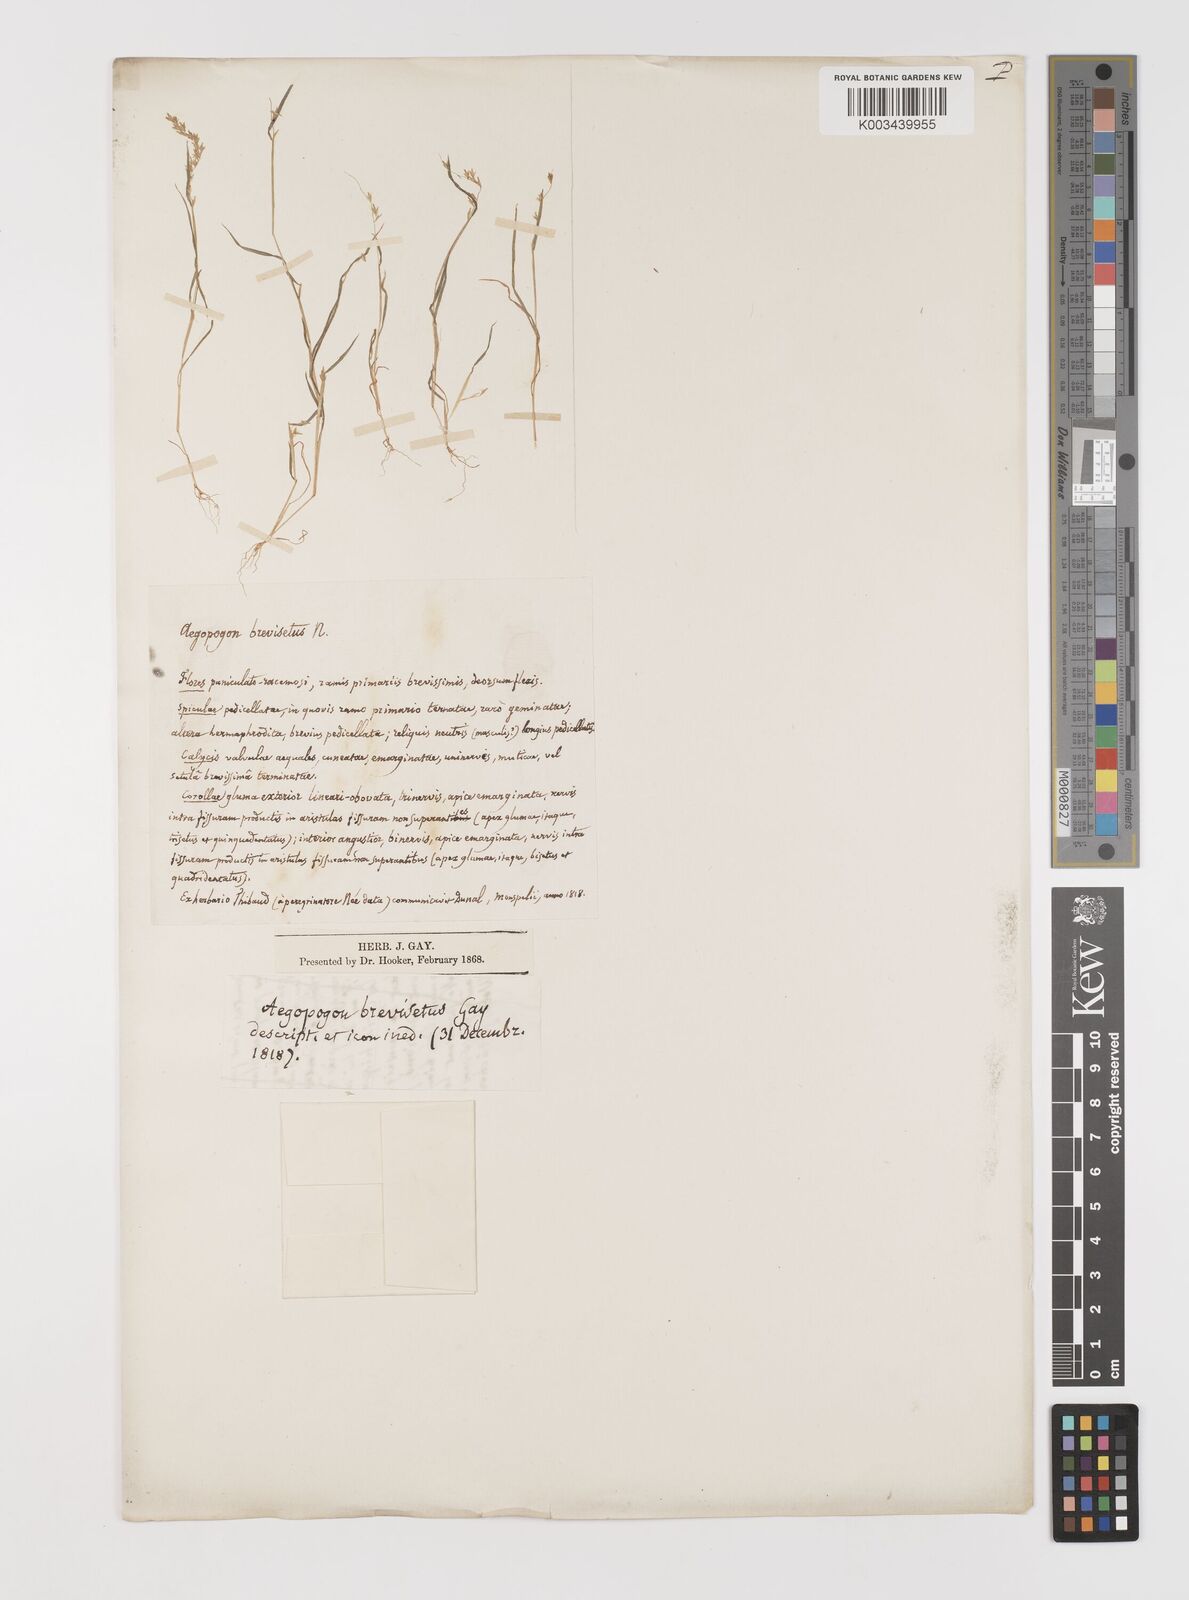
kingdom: Plantae
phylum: Tracheophyta
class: Liliopsida
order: Poales
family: Poaceae
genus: Muhlenbergia
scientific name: Muhlenbergia uniseta
